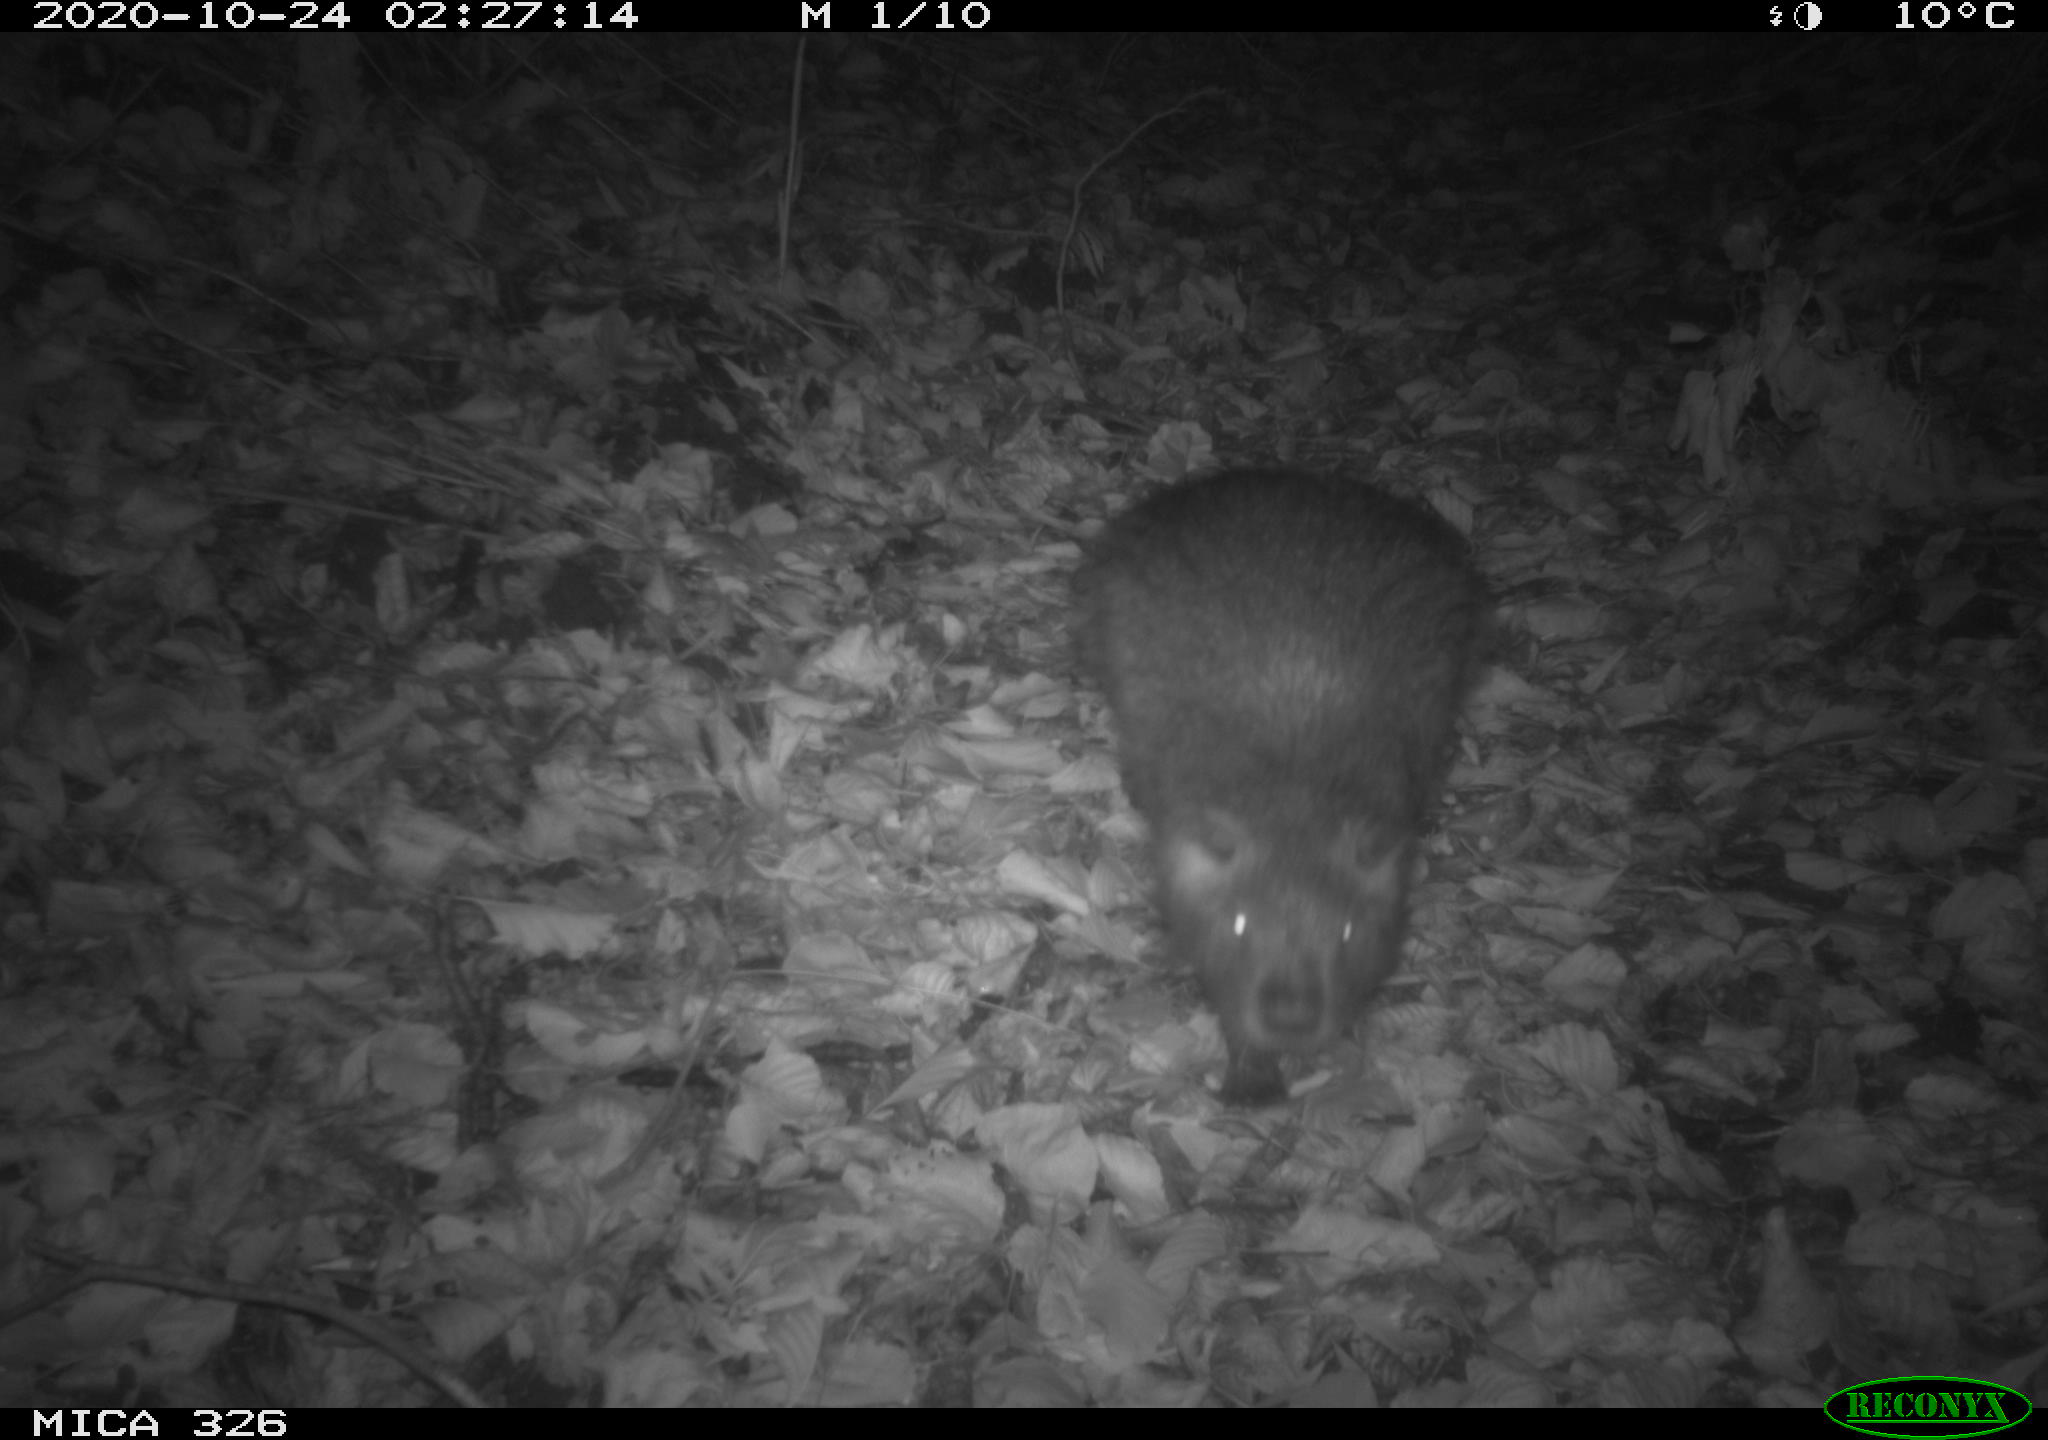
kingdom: Animalia
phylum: Chordata
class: Mammalia
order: Rodentia
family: Myocastoridae
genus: Myocastor
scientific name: Myocastor coypus
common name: Coypu
